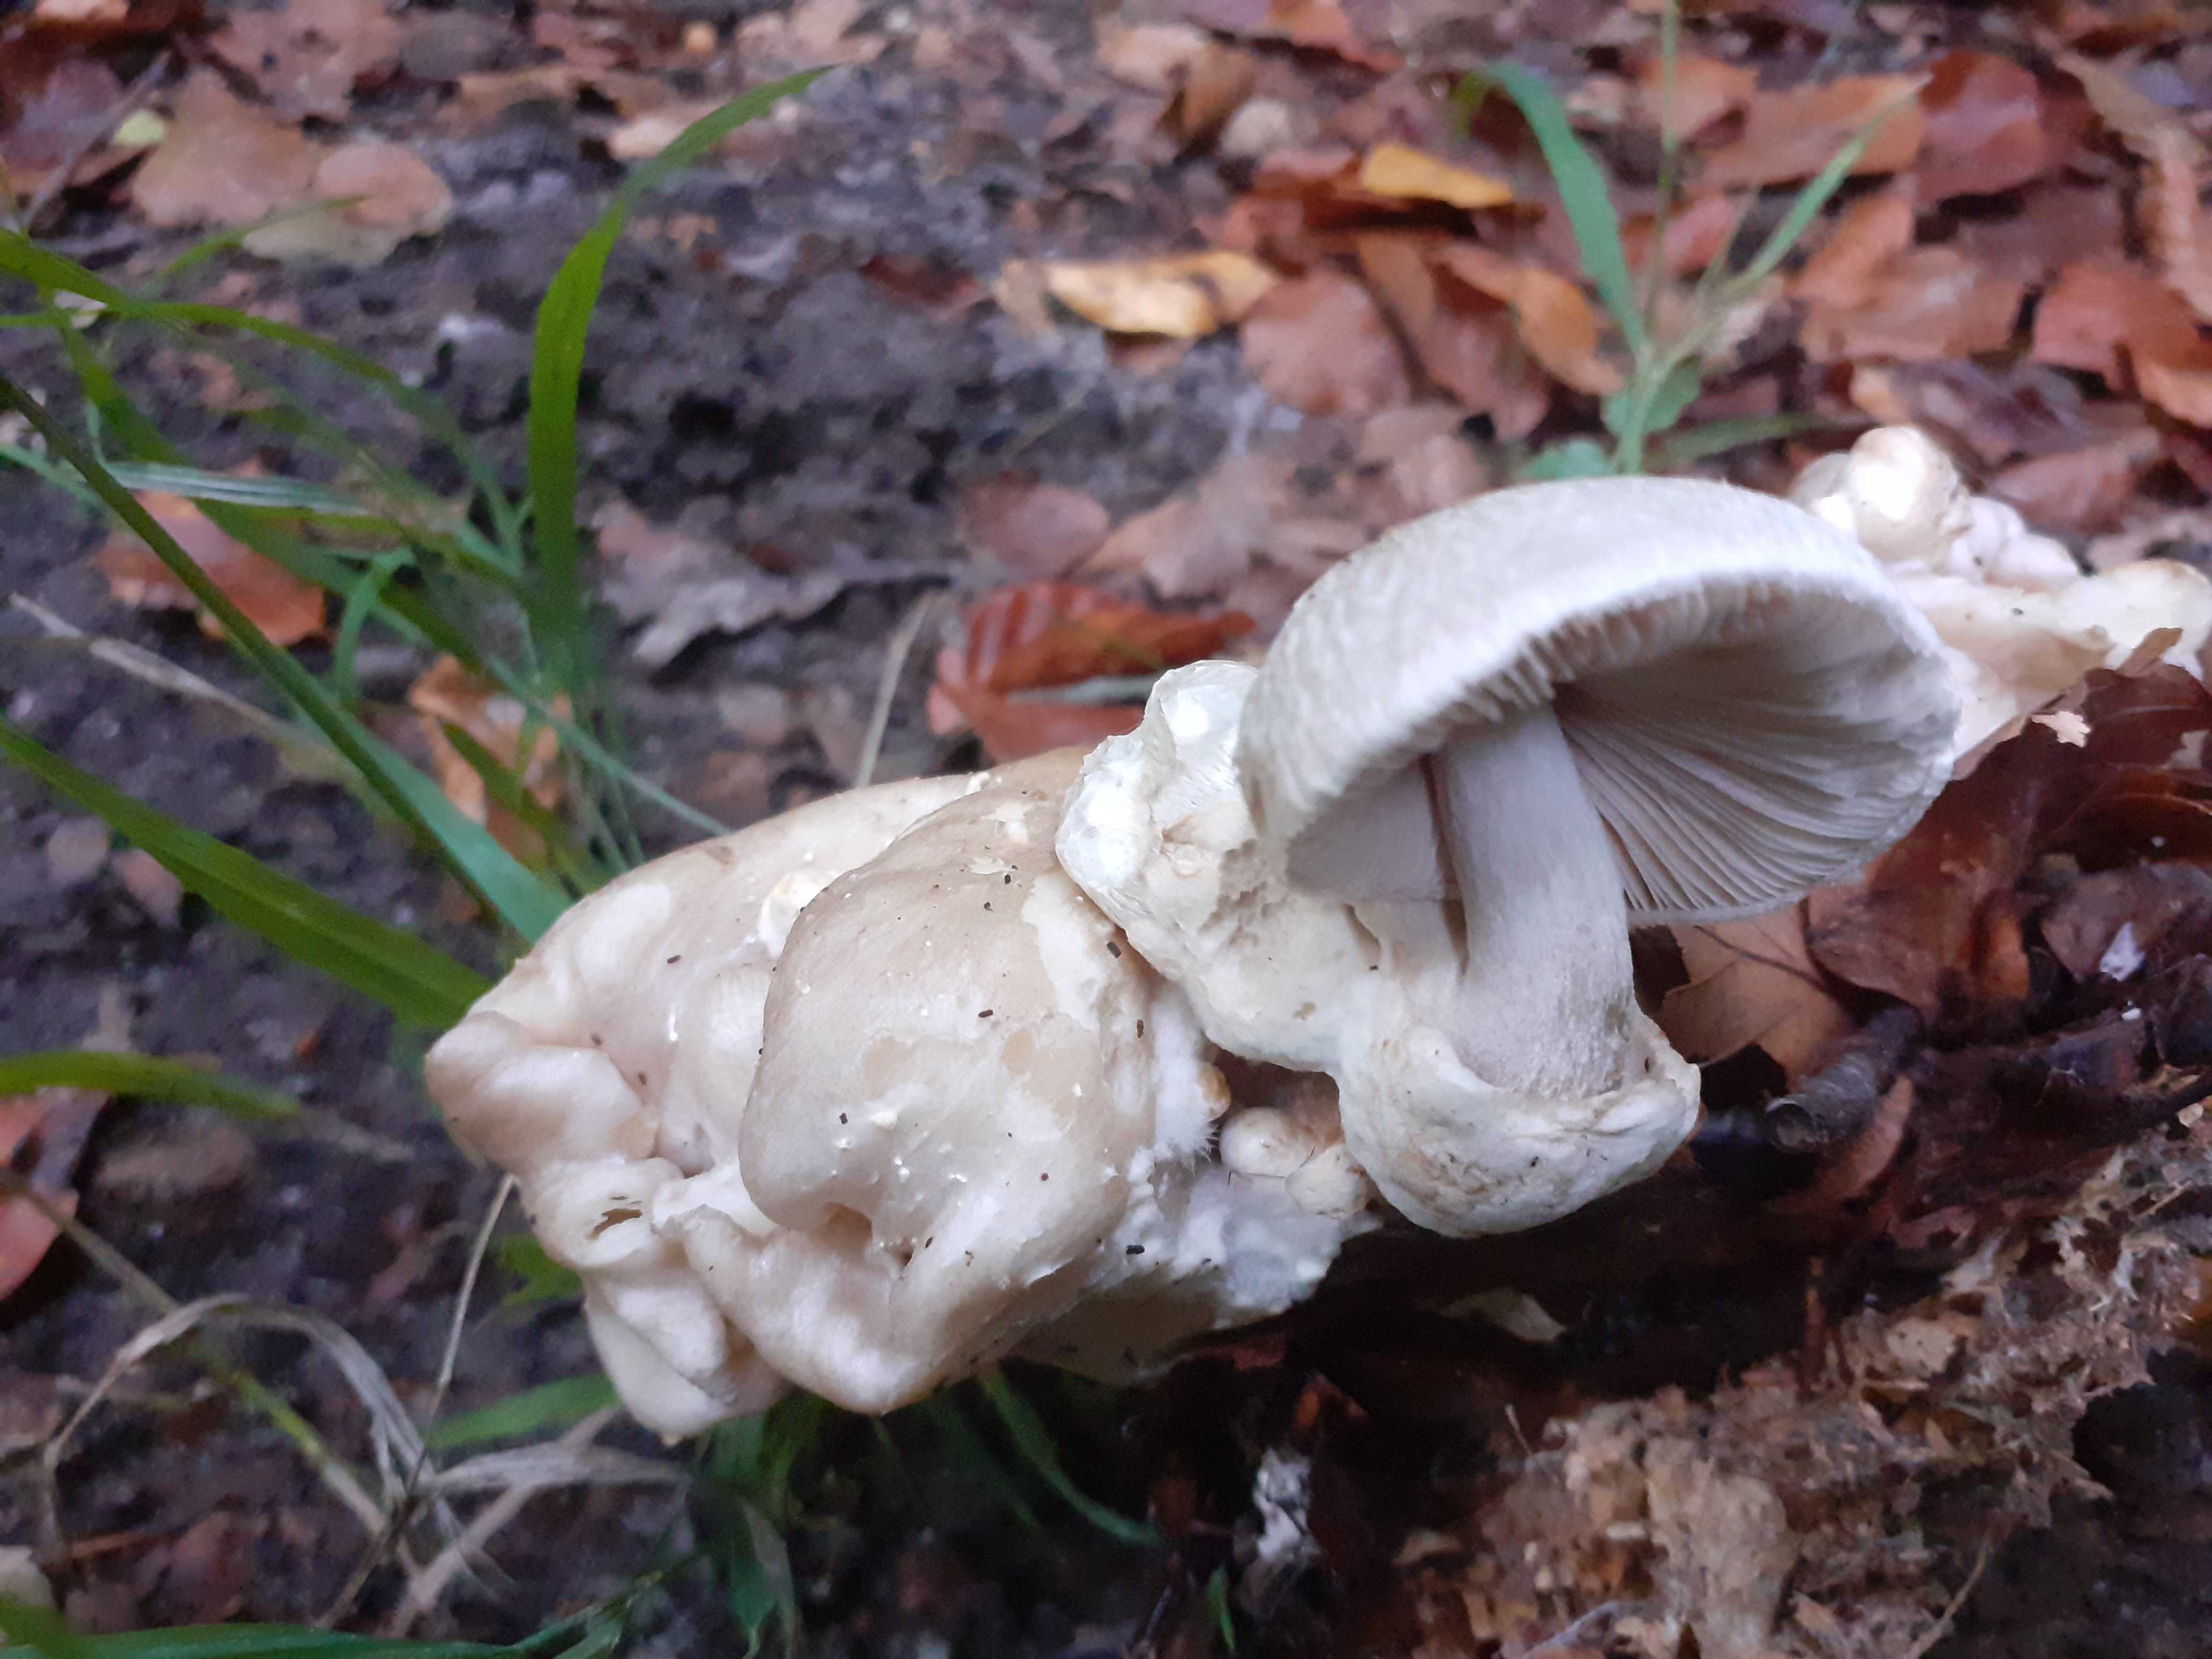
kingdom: Fungi
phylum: Basidiomycota
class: Agaricomycetes
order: Agaricales
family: Pluteaceae
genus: Volvariella
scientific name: Volvariella surrecta
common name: snyltende posesvamp
